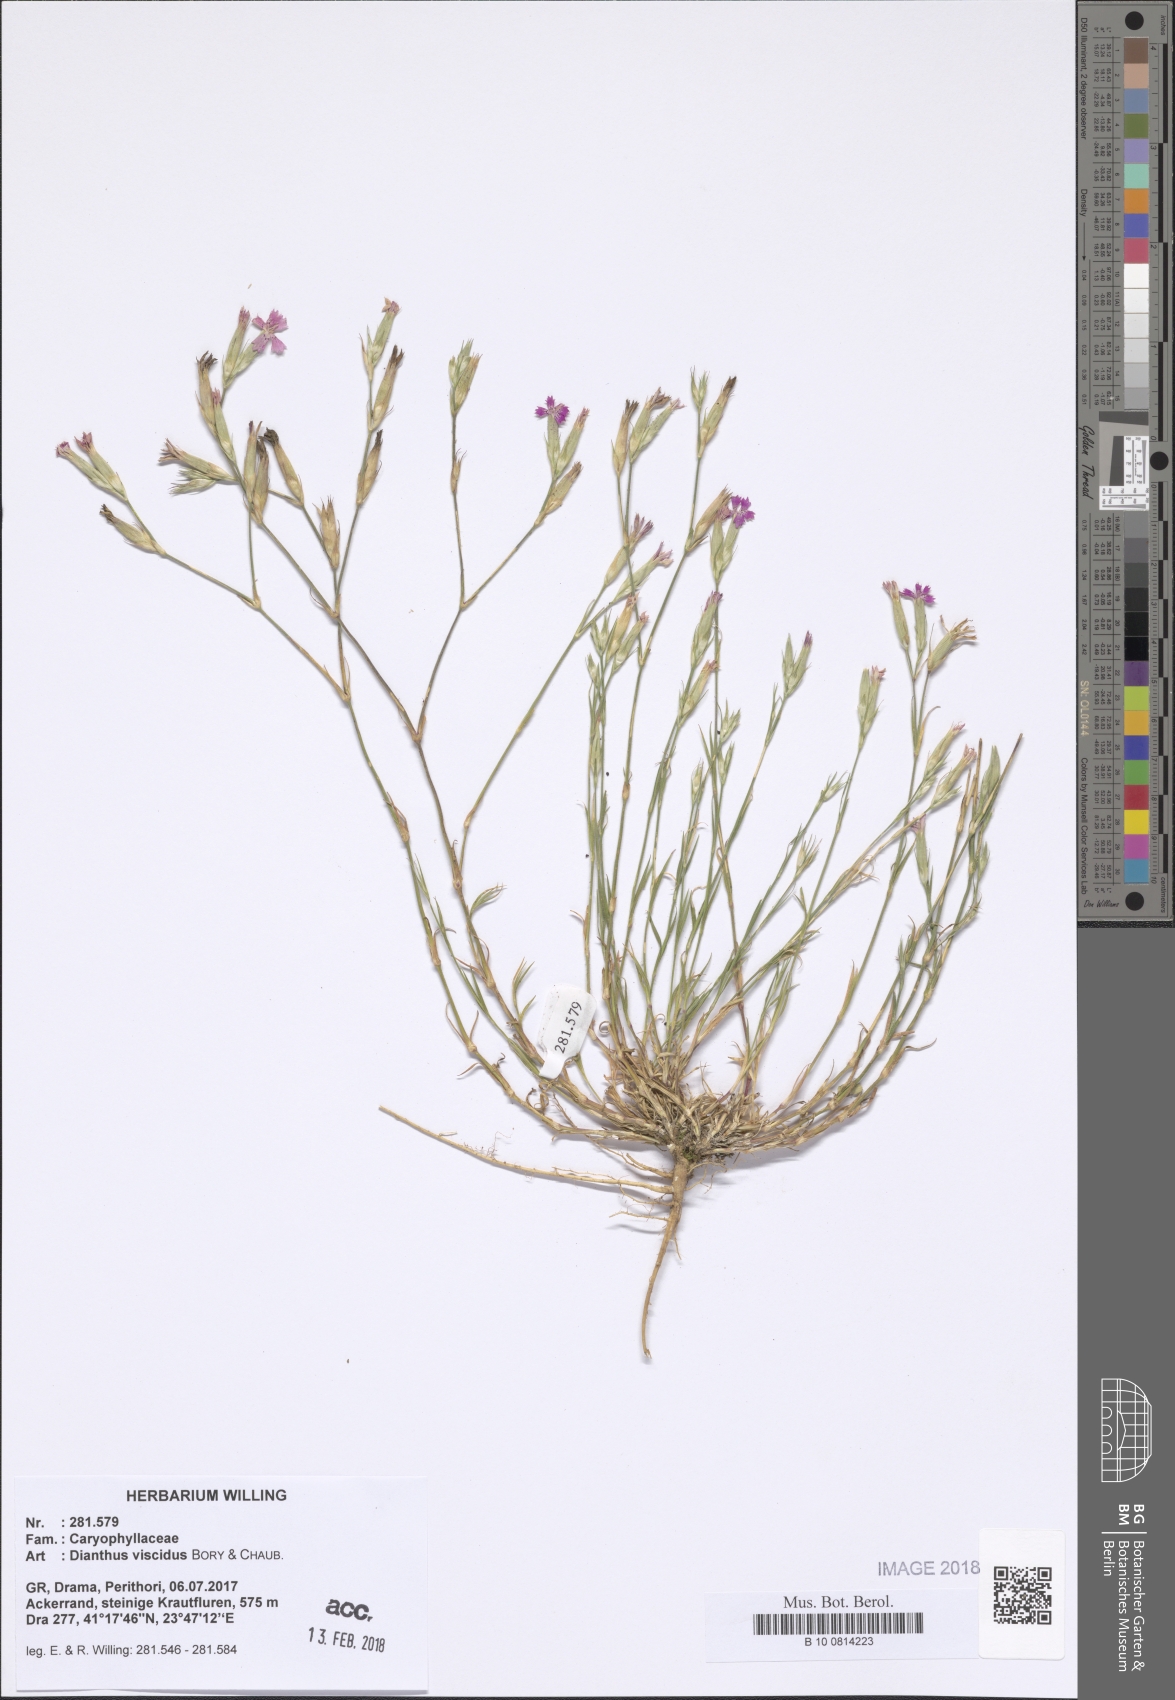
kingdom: Plantae
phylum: Tracheophyta
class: Magnoliopsida
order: Caryophyllales
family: Caryophyllaceae
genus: Dianthus
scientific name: Dianthus viscidus
